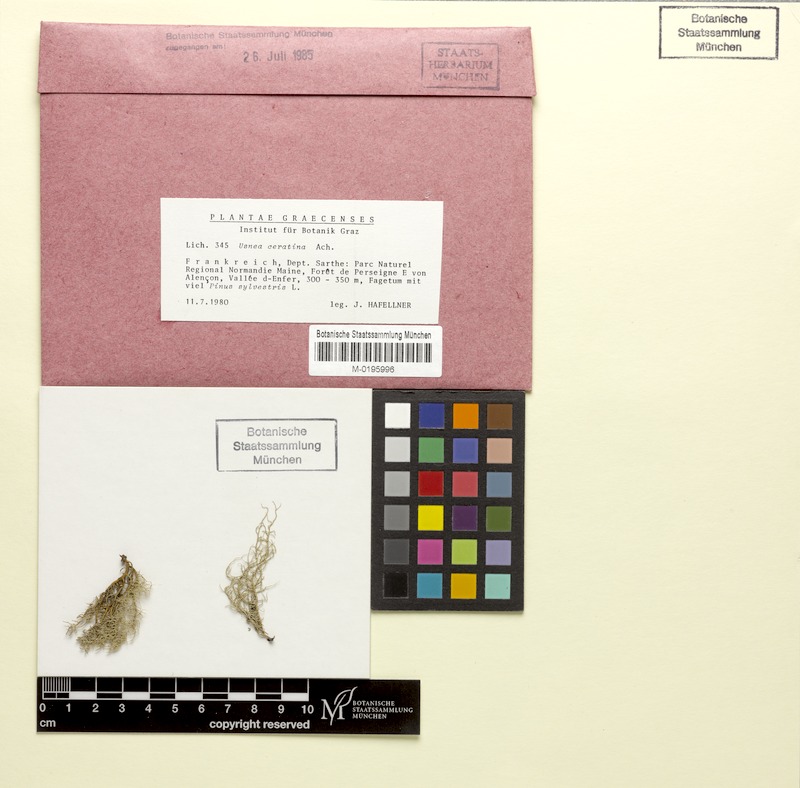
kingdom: Fungi
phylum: Ascomycota
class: Lecanoromycetes
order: Lecanorales
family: Parmeliaceae
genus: Usnea
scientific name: Usnea ceratina
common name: Warty beard lichen
